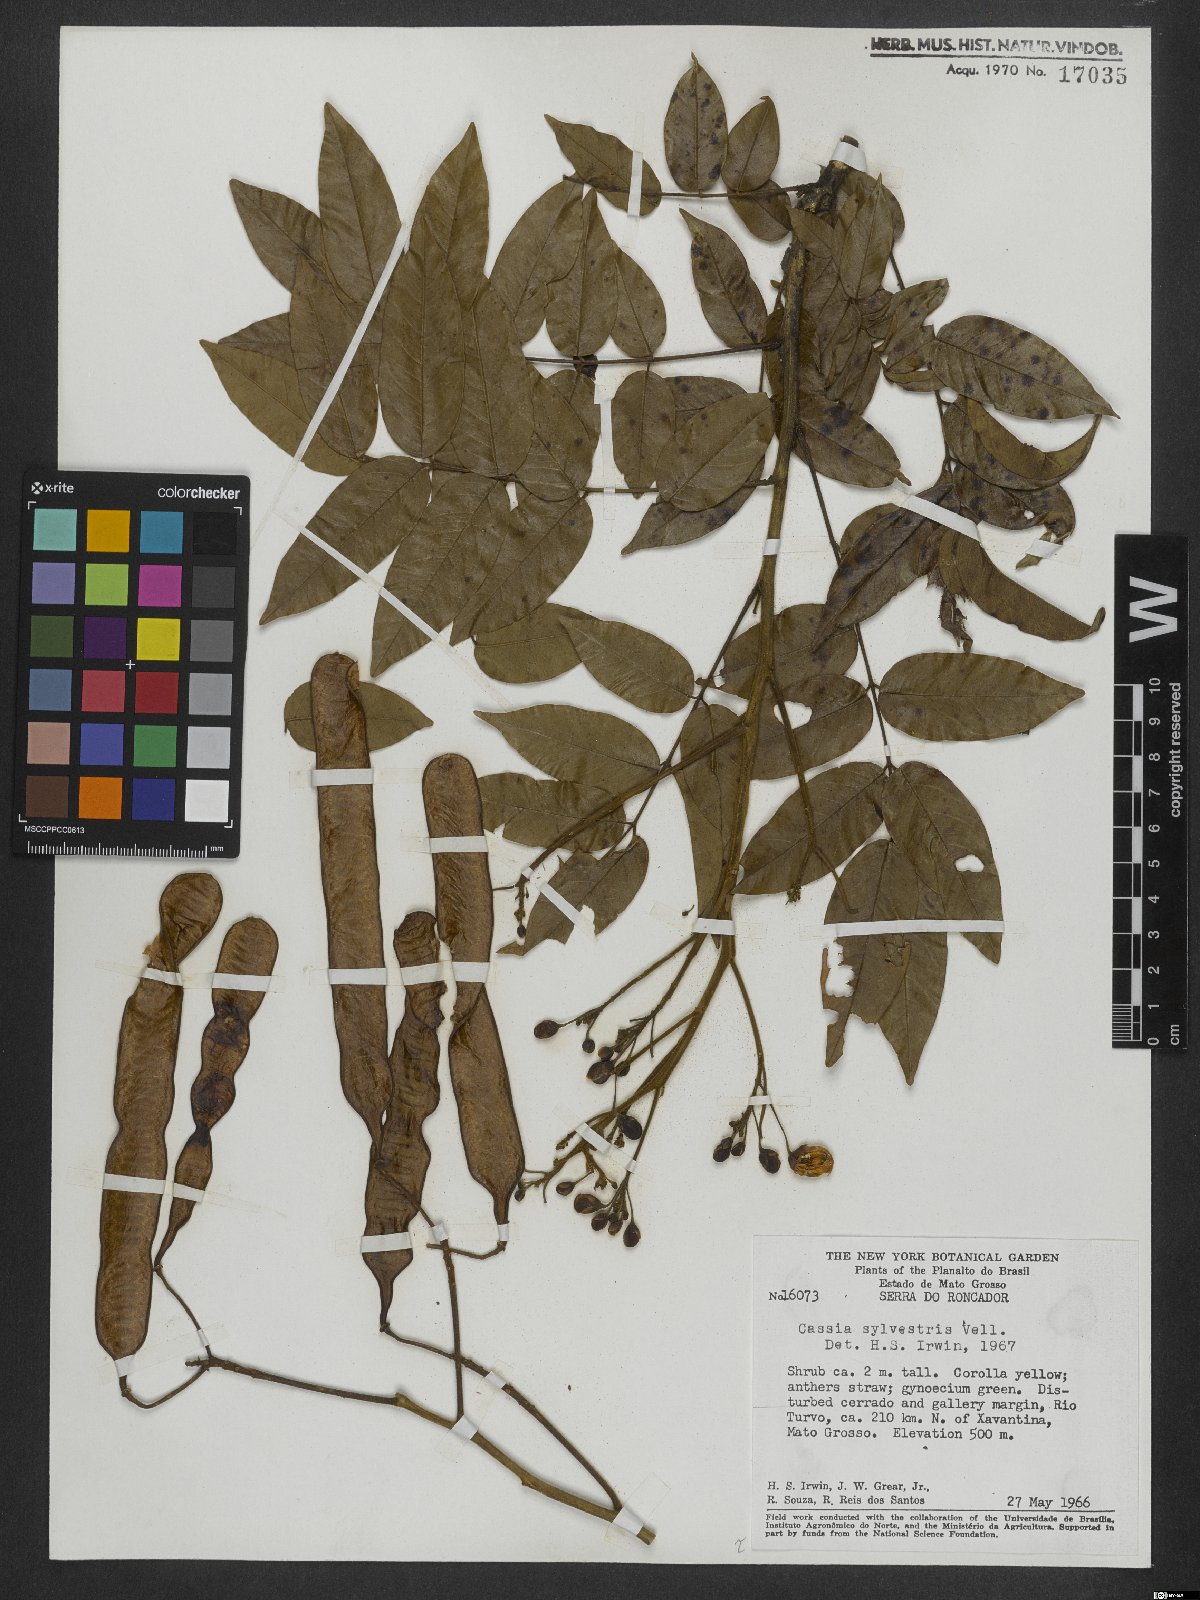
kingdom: Plantae
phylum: Tracheophyta
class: Magnoliopsida
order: Fabales
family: Fabaceae
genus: Senna
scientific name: Senna silvestris
